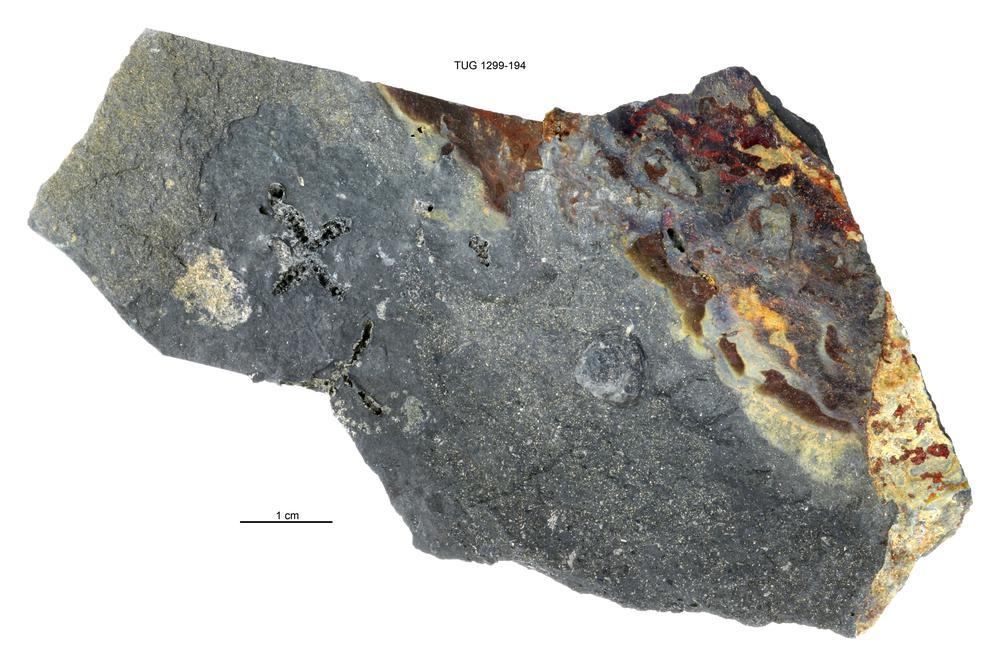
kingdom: Animalia
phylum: Brachiopoda
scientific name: Brachiopoda
